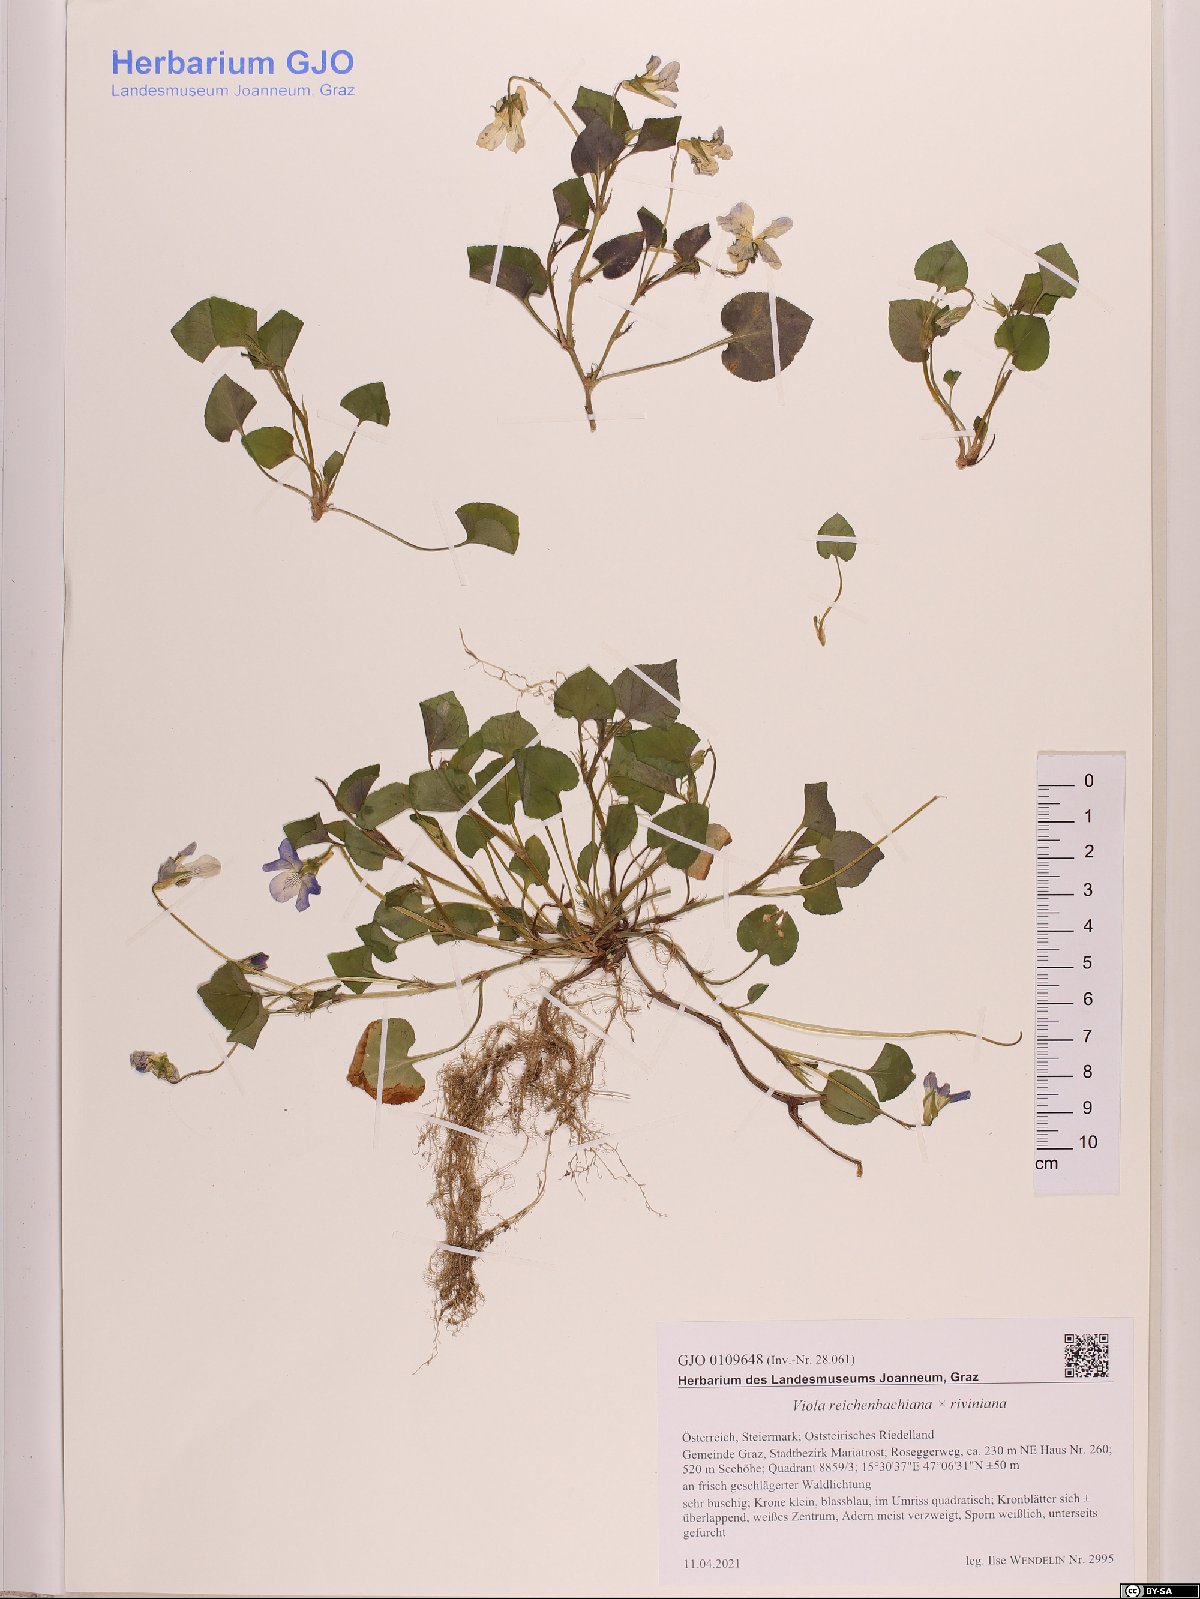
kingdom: Plantae
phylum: Tracheophyta
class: Magnoliopsida
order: Malpighiales
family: Violaceae
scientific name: Violaceae
